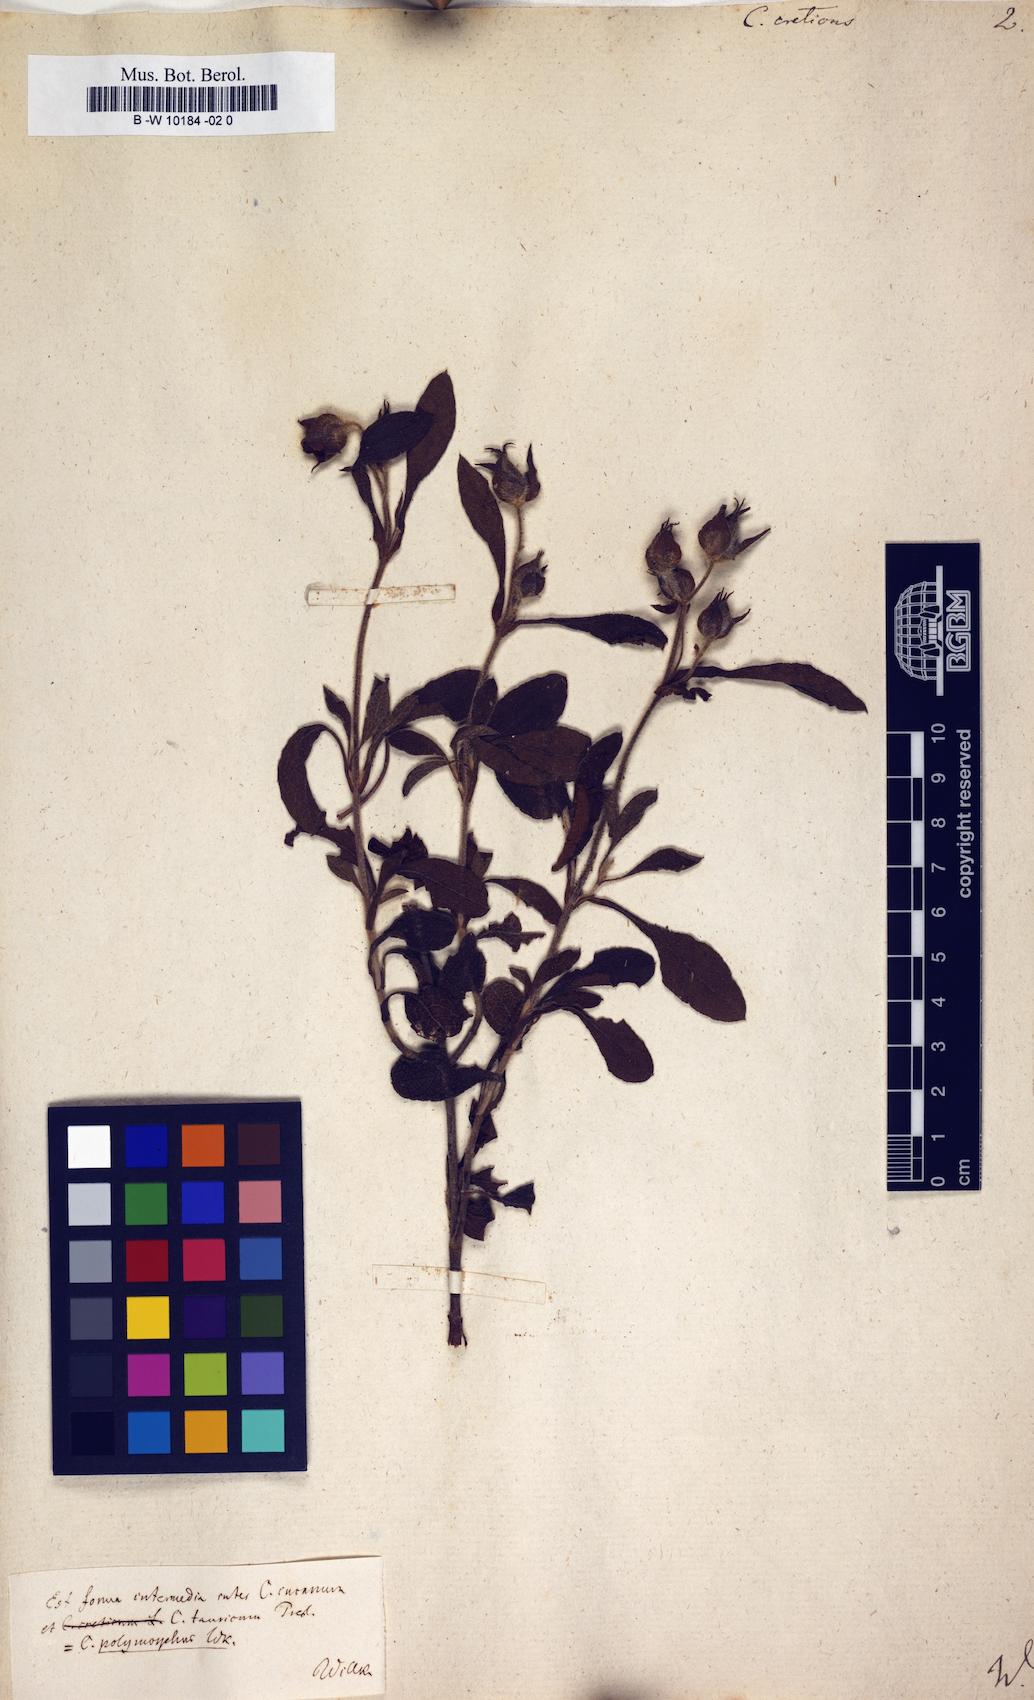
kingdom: Plantae
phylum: Tracheophyta
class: Magnoliopsida
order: Malvales
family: Cistaceae
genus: Cistus
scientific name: Cistus creticus
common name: Cretan rockrose
